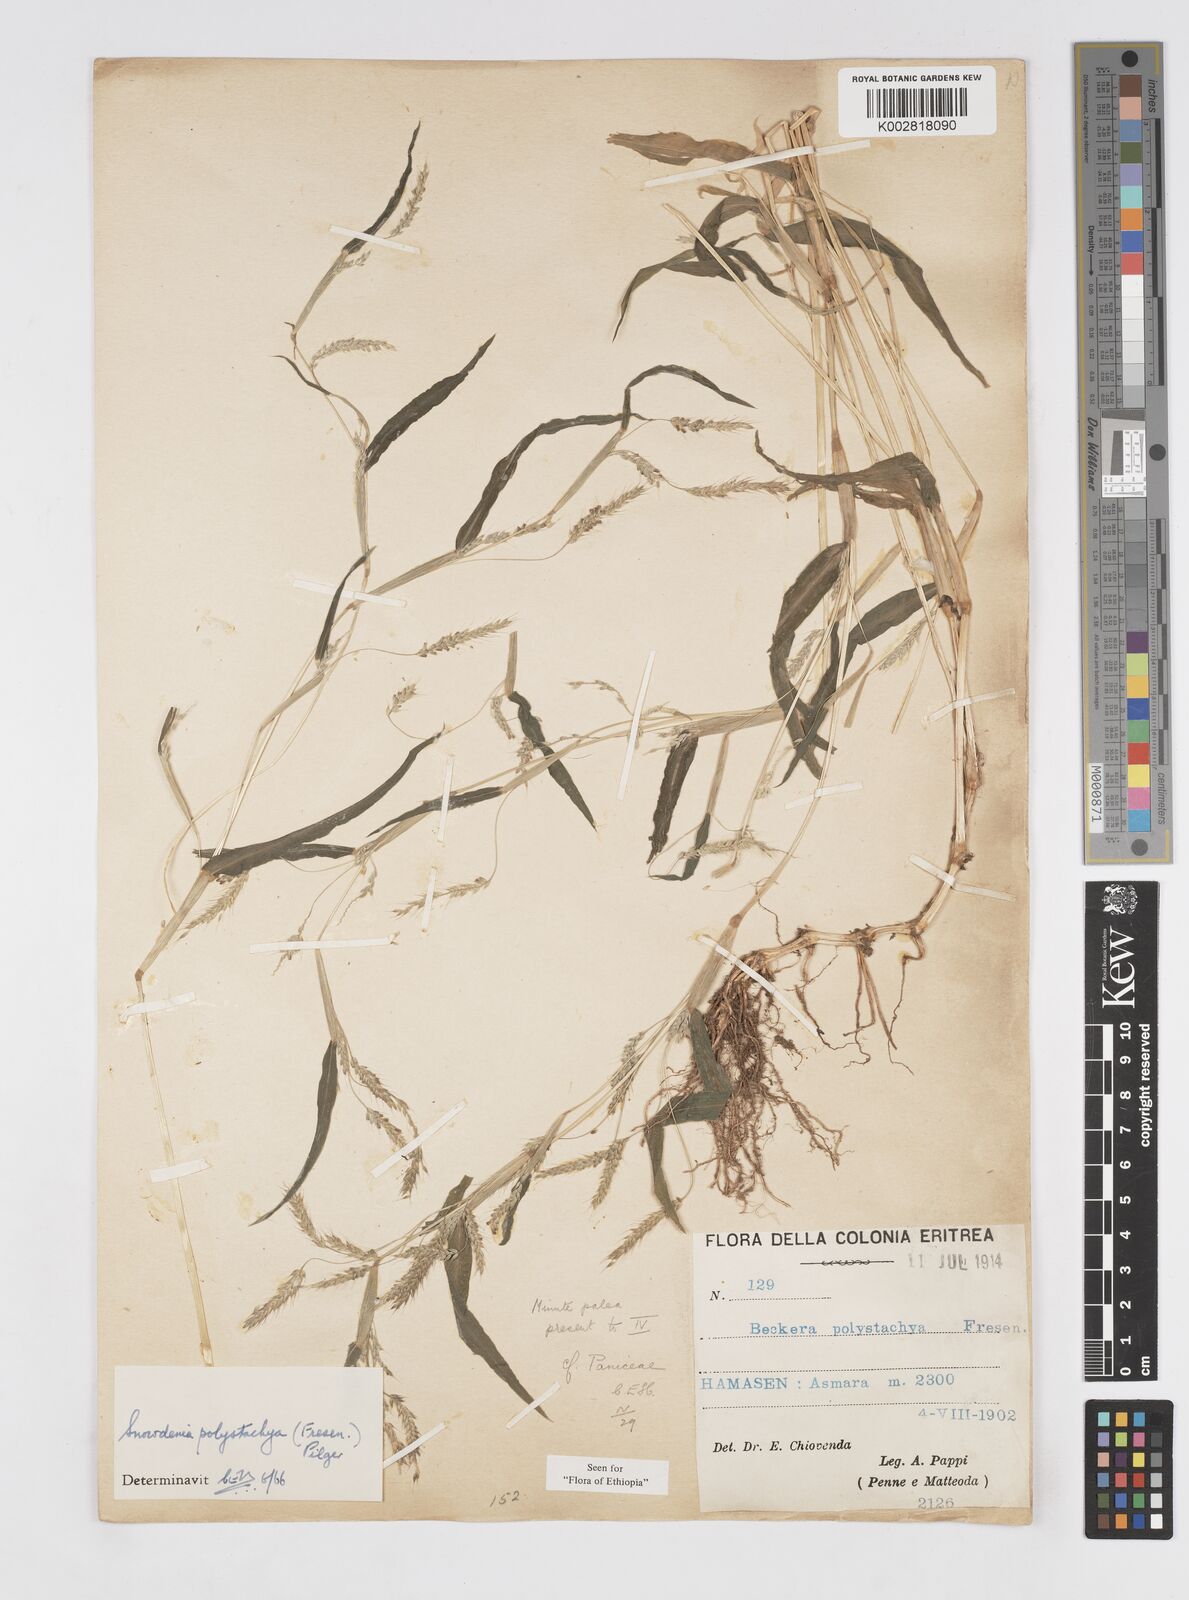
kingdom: Plantae
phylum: Tracheophyta
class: Liliopsida
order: Poales
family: Poaceae
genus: Snowdenia
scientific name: Snowdenia polystachya
